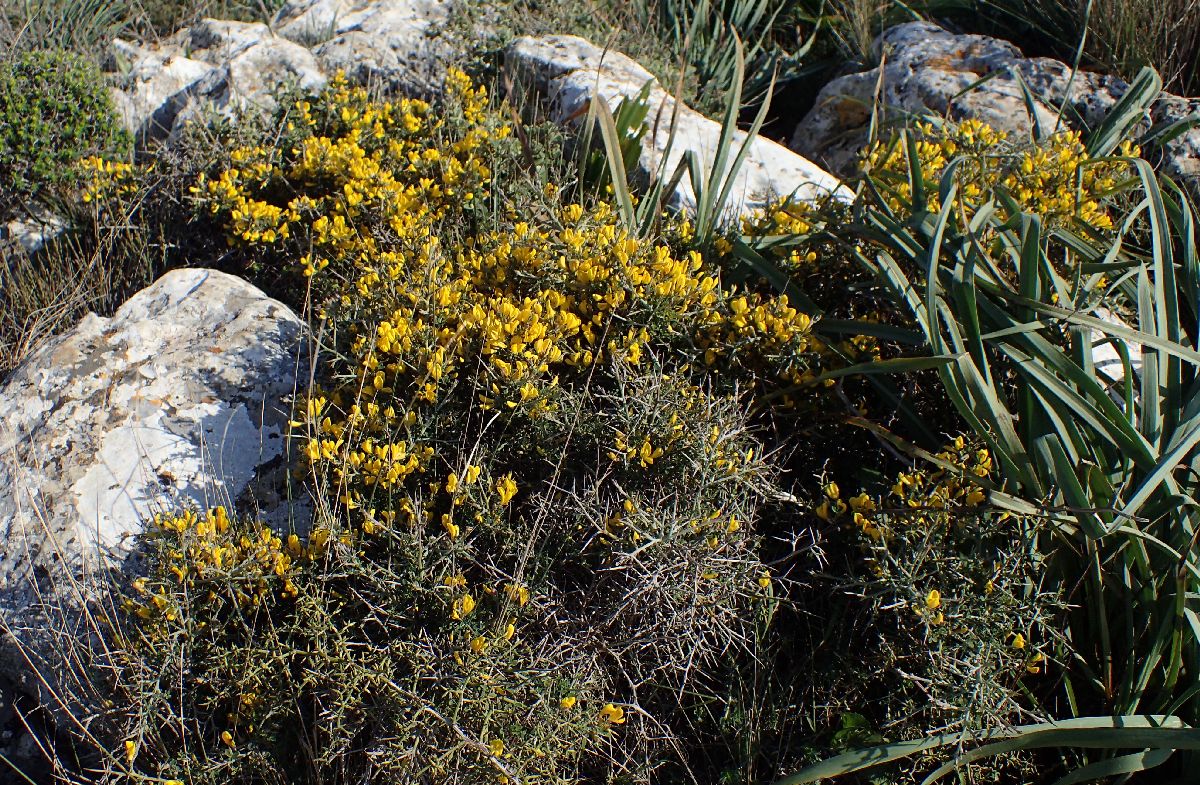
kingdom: Plantae
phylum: Tracheophyta
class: Magnoliopsida
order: Fabales
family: Fabaceae
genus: Calicotome
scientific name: Calicotome villosa
